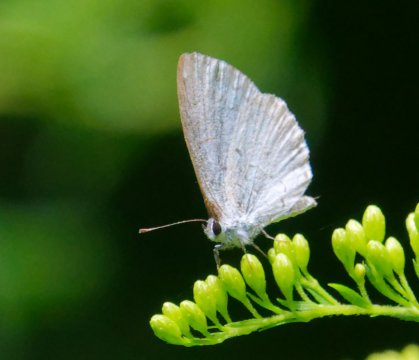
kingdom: Animalia
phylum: Arthropoda
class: Insecta
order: Lepidoptera
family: Lycaenidae
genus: Celastrina
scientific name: Celastrina
